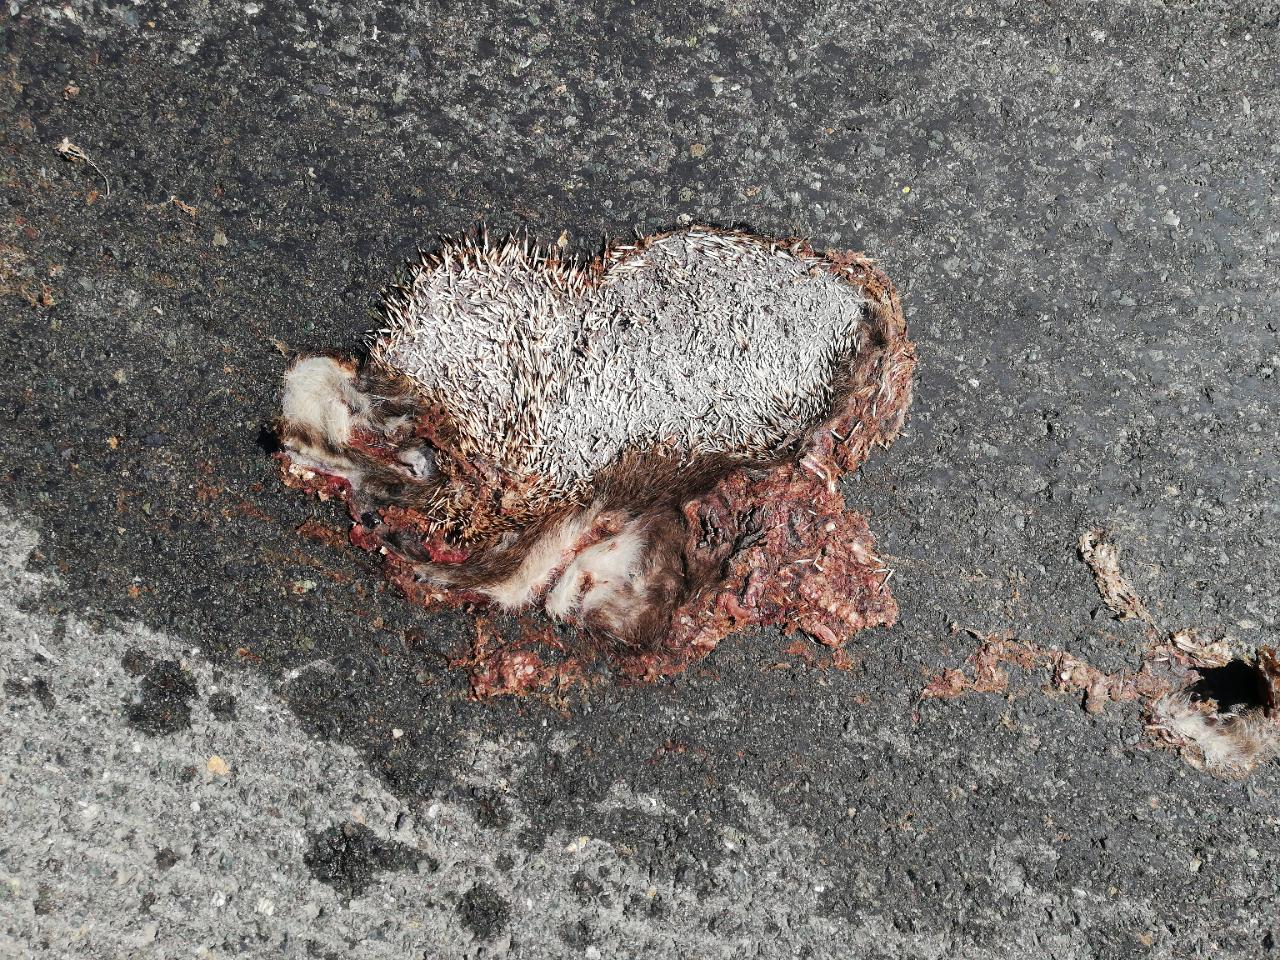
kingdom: Animalia
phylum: Chordata
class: Mammalia
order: Erinaceomorpha
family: Erinaceidae
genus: Erinaceus
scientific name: Erinaceus
